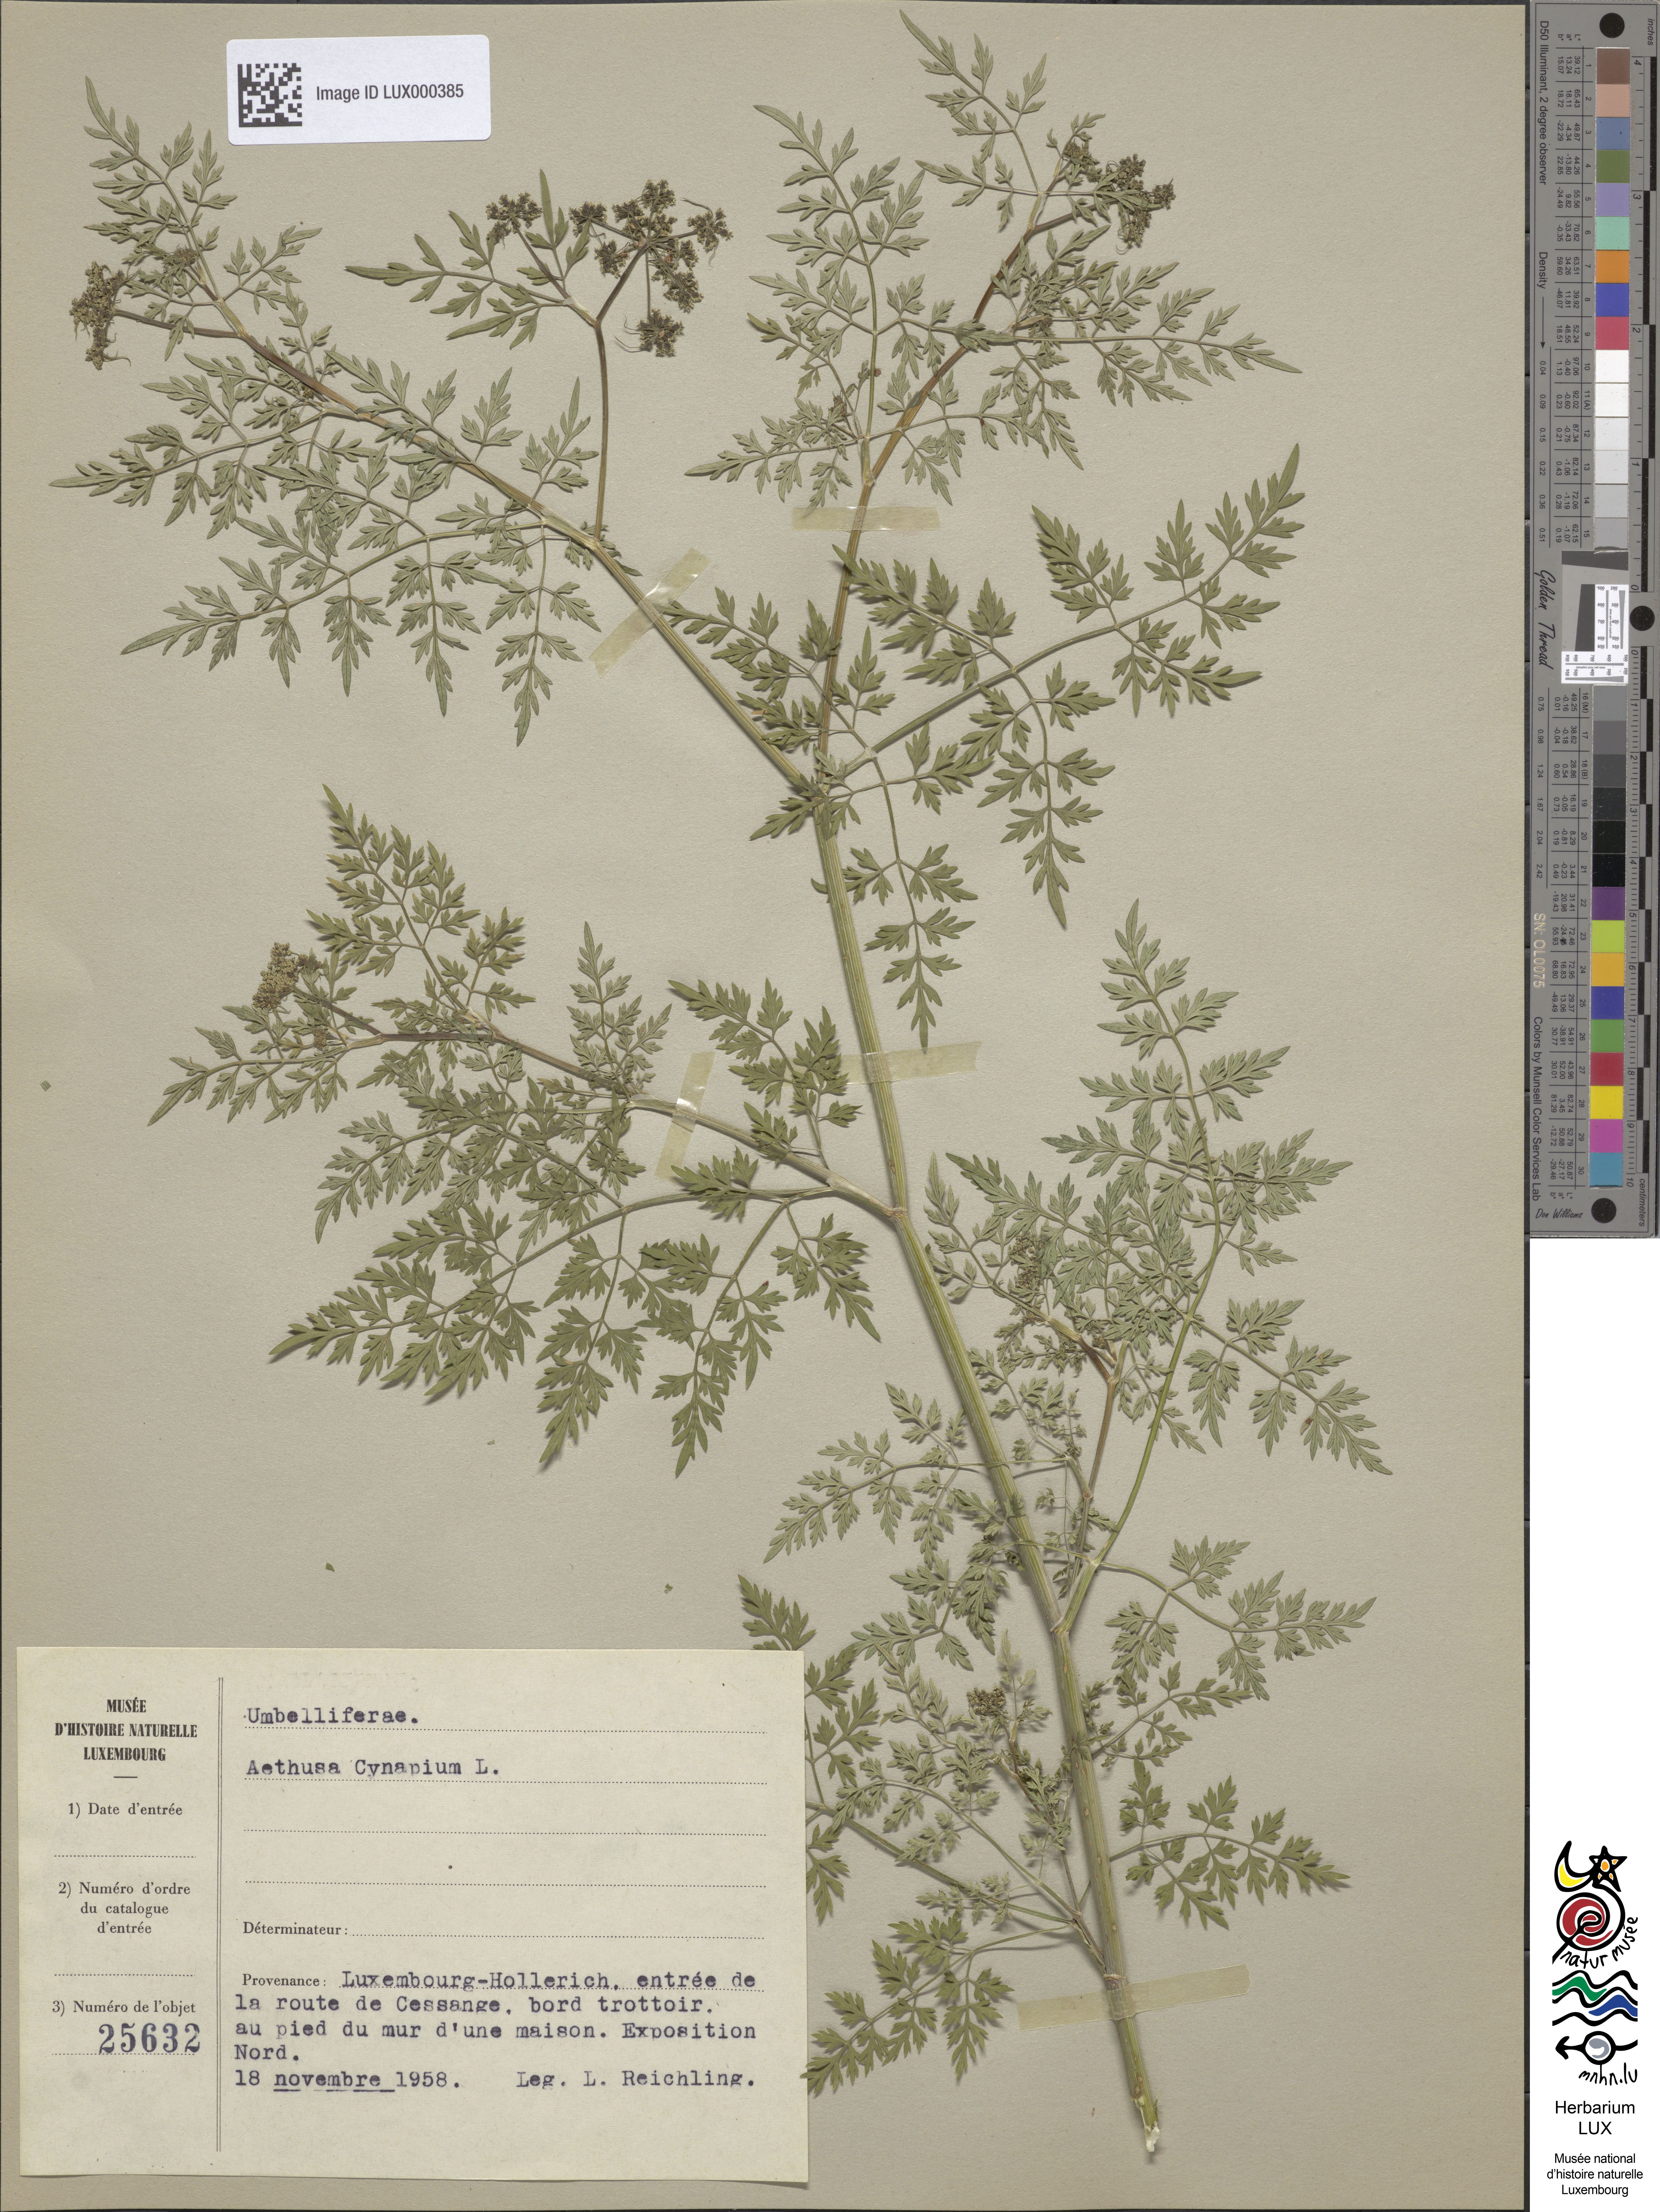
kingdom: Plantae
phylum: Tracheophyta
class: Magnoliopsida
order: Apiales
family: Apiaceae
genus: Aethusa
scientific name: Aethusa cynapium
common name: Fool's parsley
